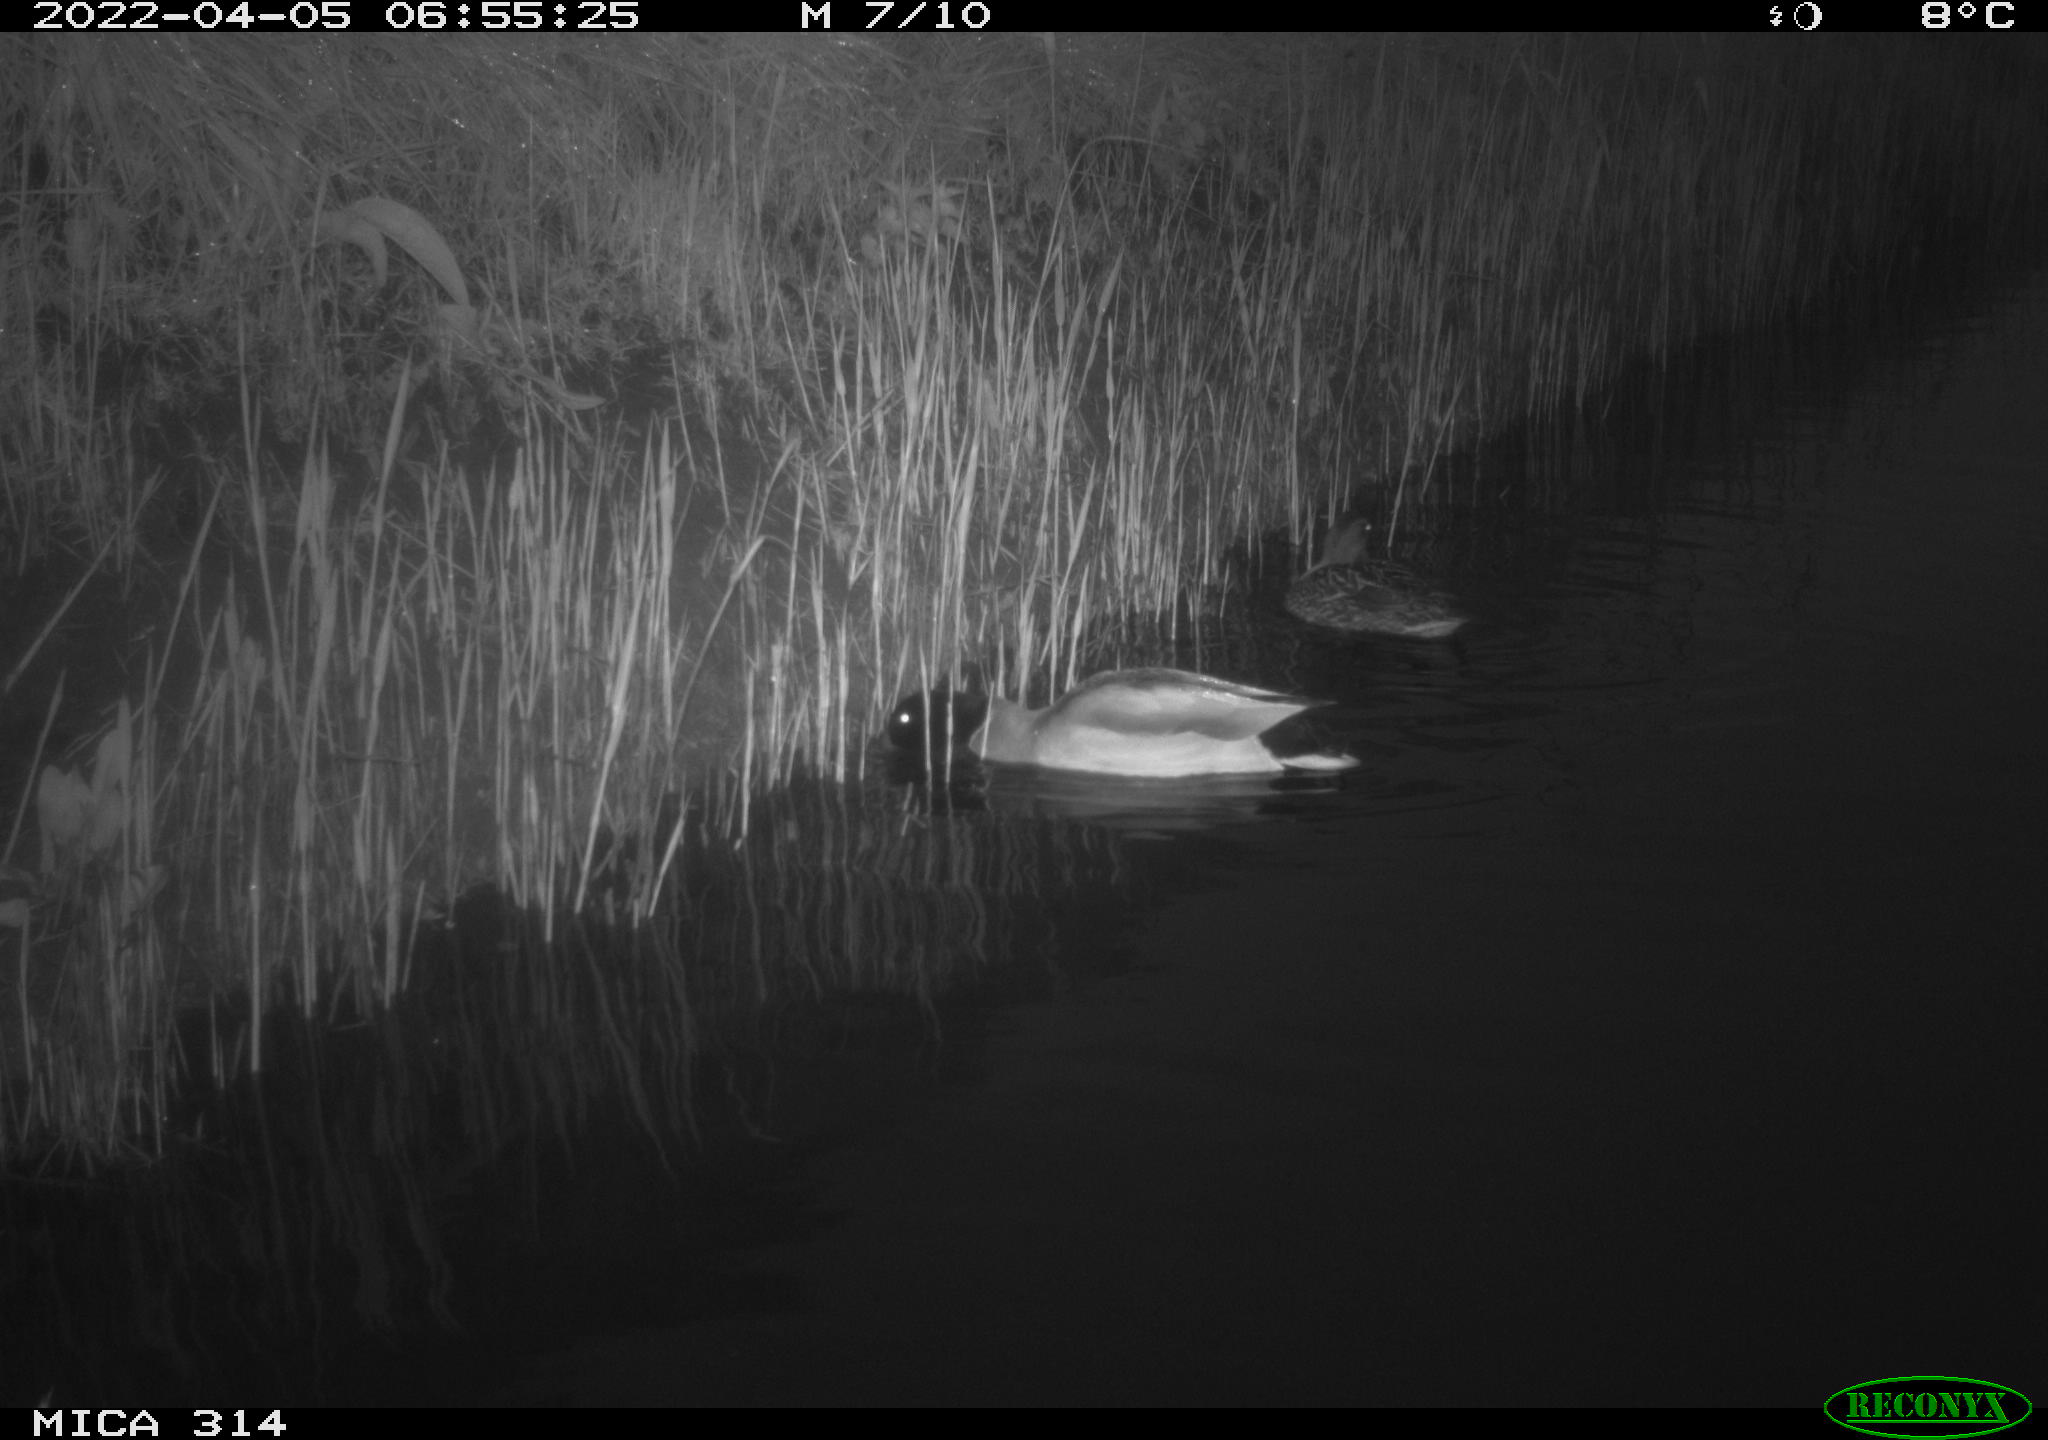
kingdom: Animalia
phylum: Chordata
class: Aves
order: Anseriformes
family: Anatidae
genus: Anas
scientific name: Anas platyrhynchos
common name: Mallard
